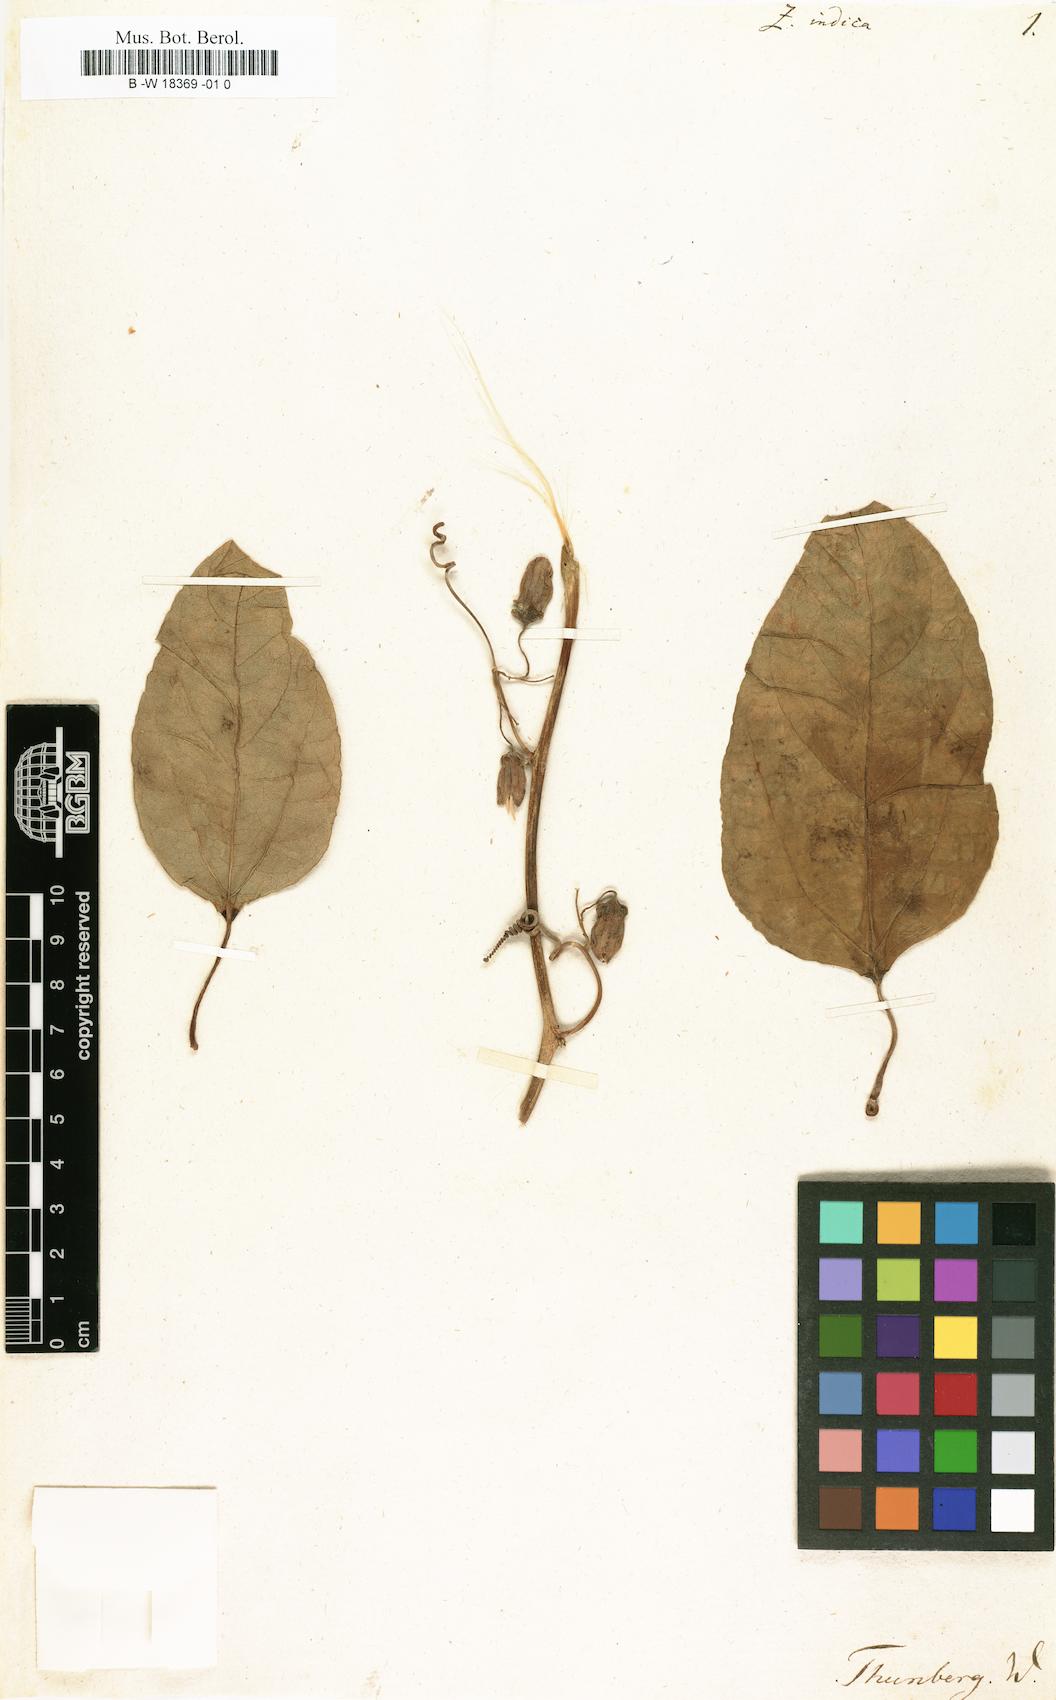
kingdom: Plantae
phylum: Tracheophyta
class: Magnoliopsida
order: Cucurbitales
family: Cucurbitaceae
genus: Zanonia
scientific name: Zanonia indica
